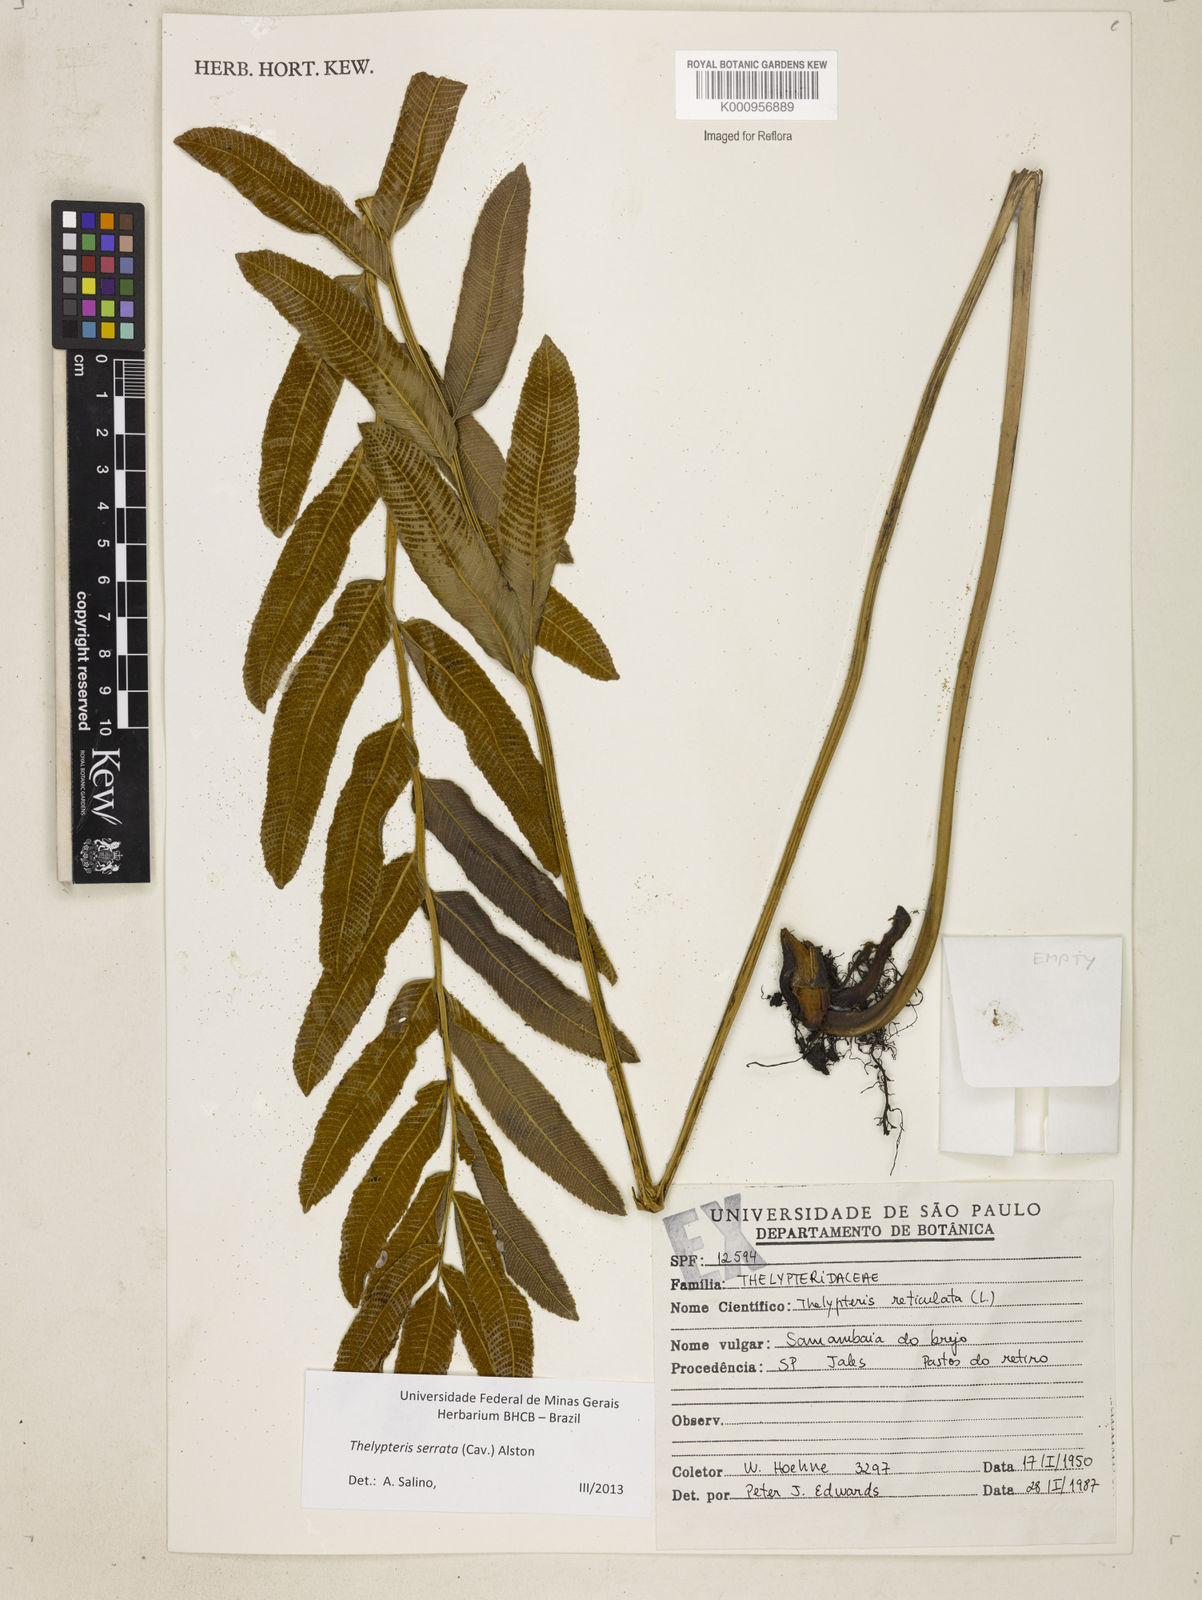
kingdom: Plantae
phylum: Tracheophyta
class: Polypodiopsida
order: Polypodiales
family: Thelypteridaceae
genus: Meniscium
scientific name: Meniscium serratum
